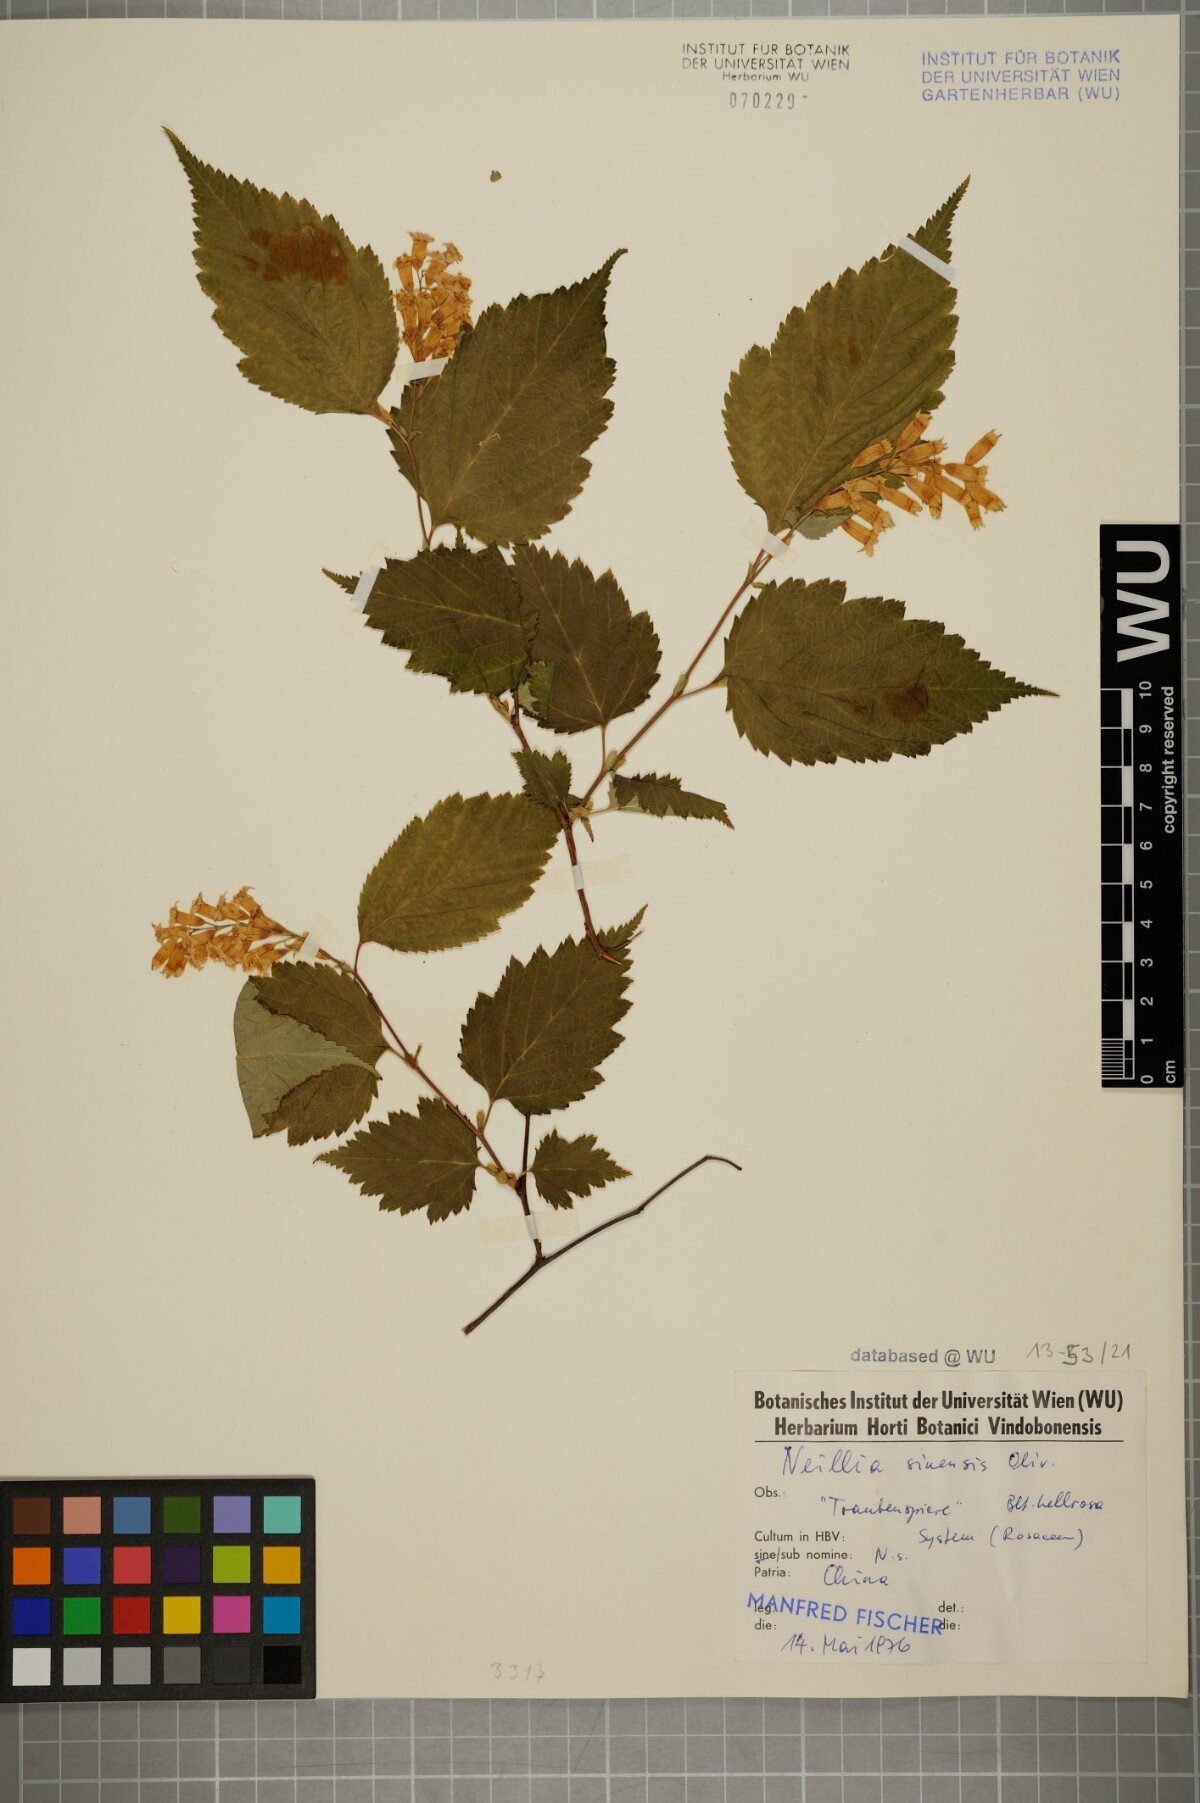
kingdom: Plantae
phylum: Tracheophyta
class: Magnoliopsida
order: Rosales
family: Rosaceae
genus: Neillia
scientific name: Neillia sinensis
